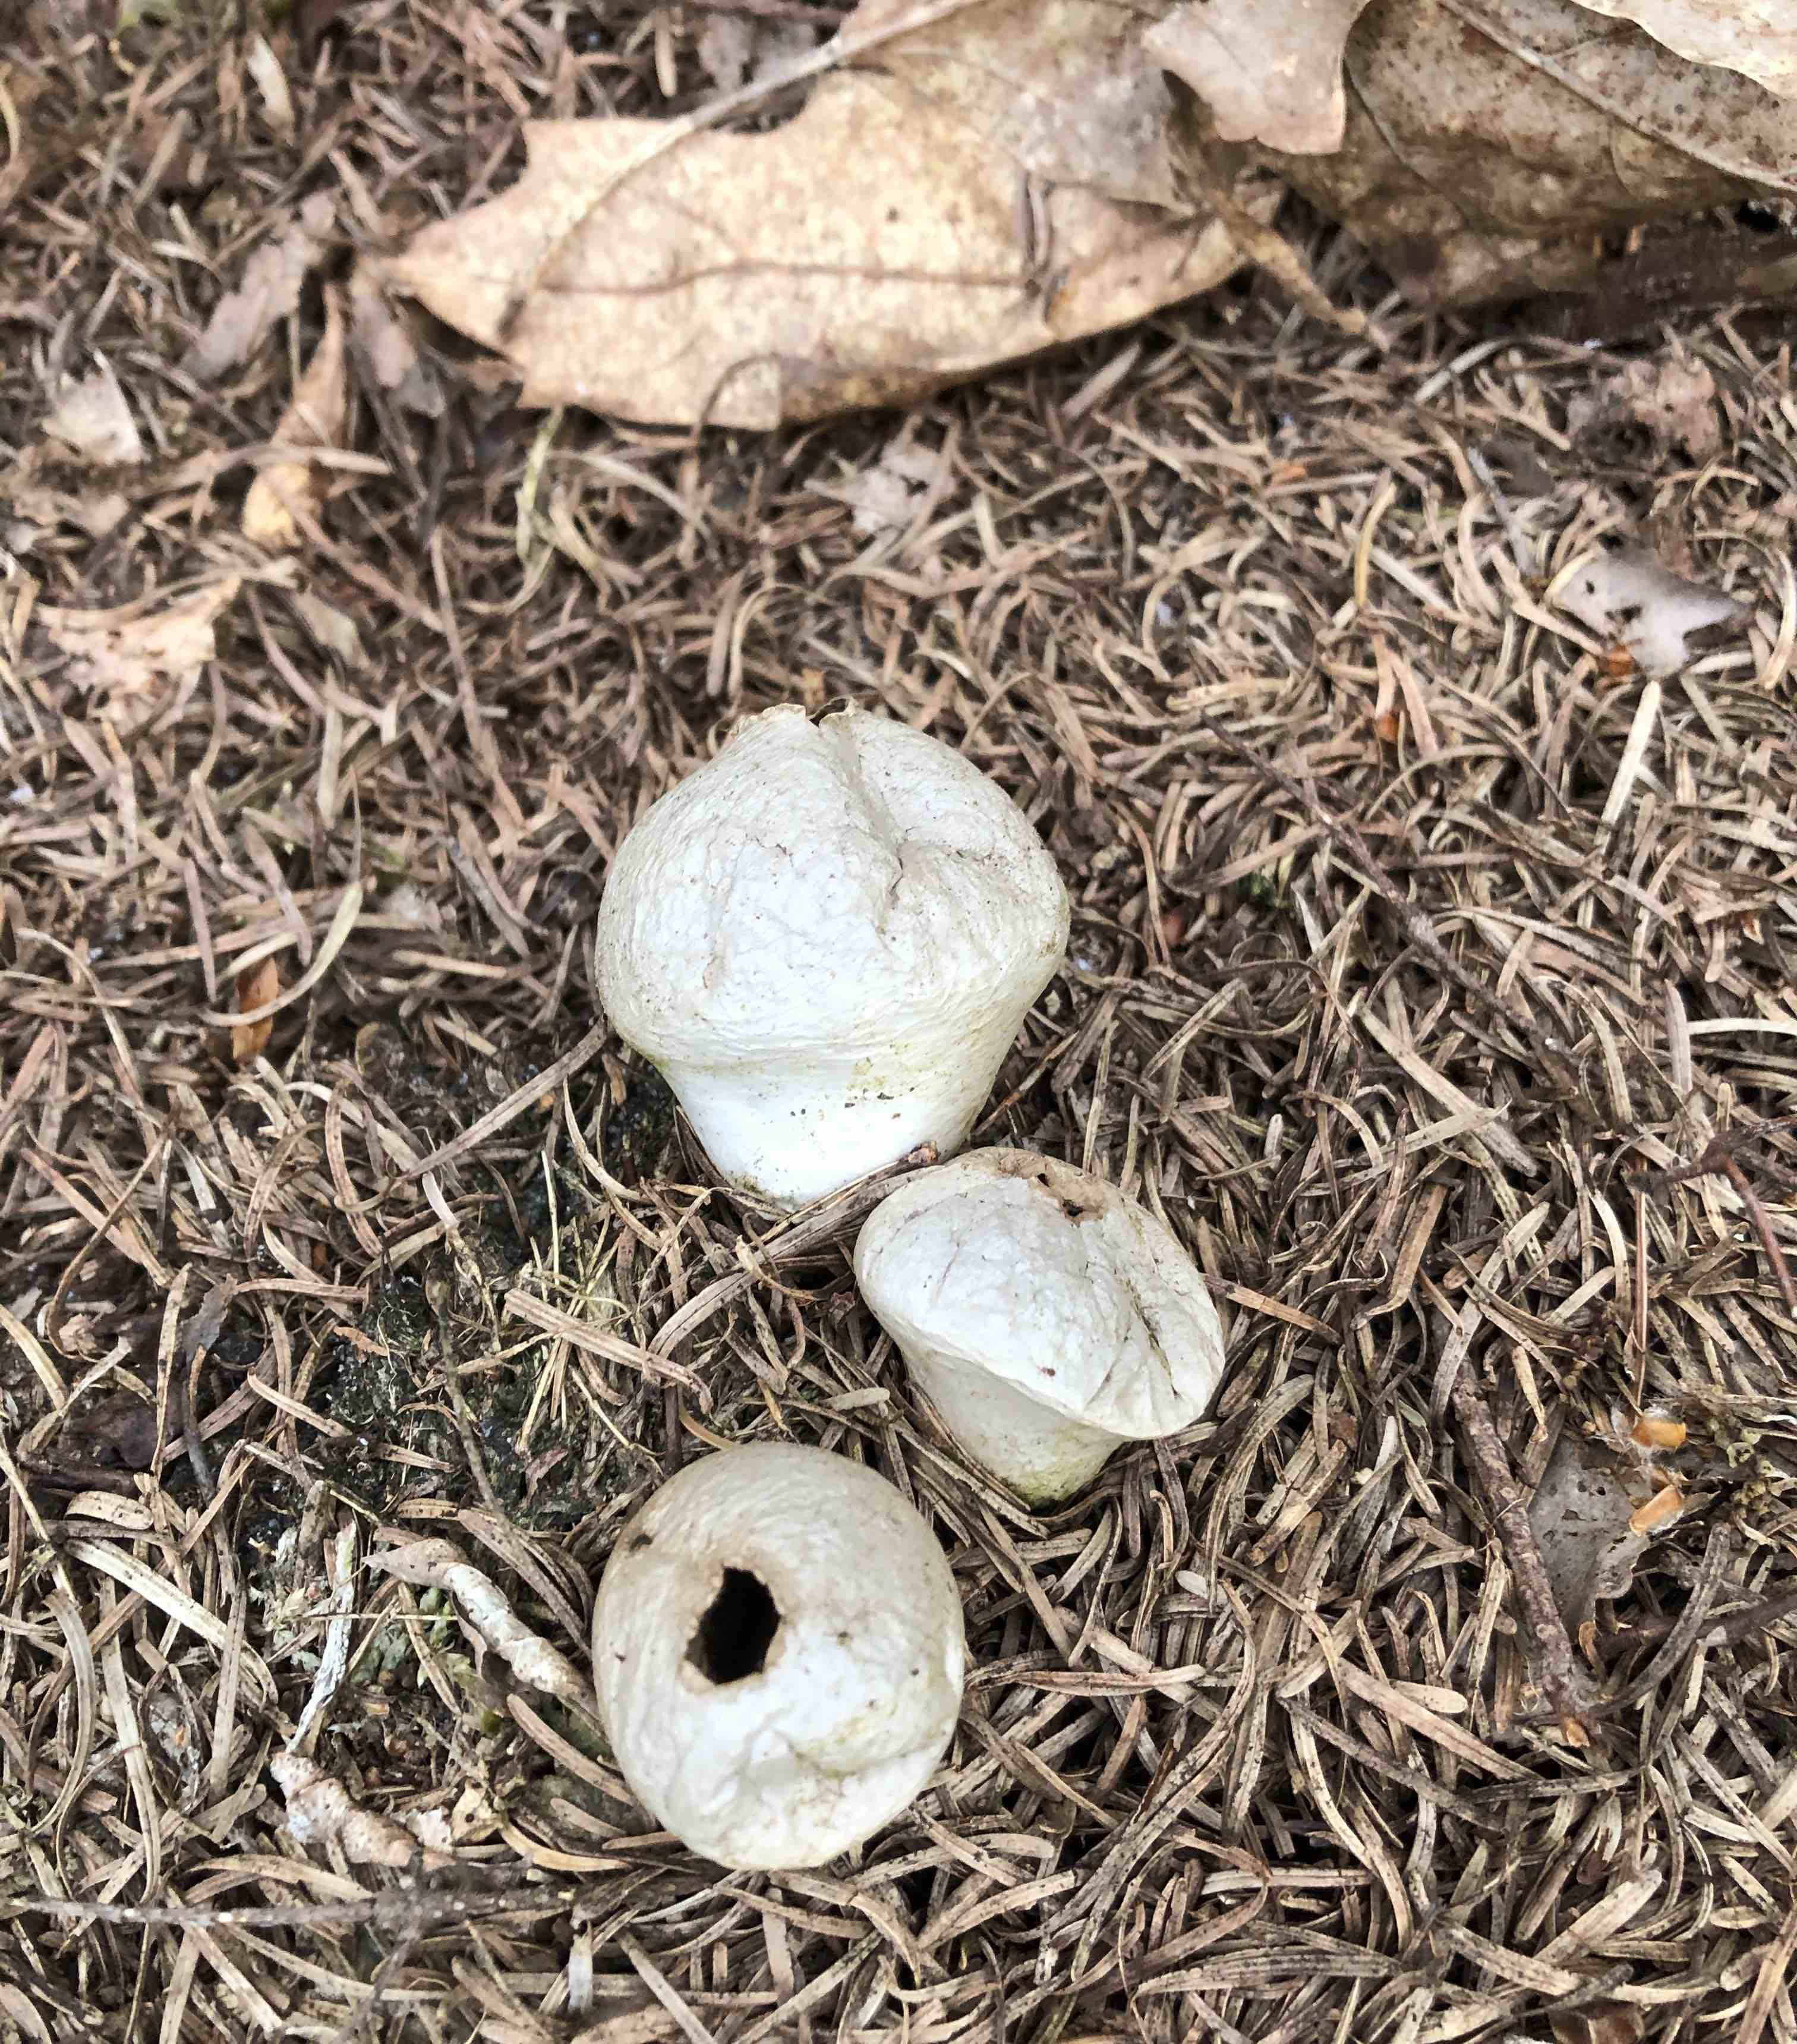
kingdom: Fungi
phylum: Basidiomycota
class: Agaricomycetes
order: Agaricales
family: Lycoperdaceae
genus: Lycoperdon
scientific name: Lycoperdon perlatum
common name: krystal-støvbold
